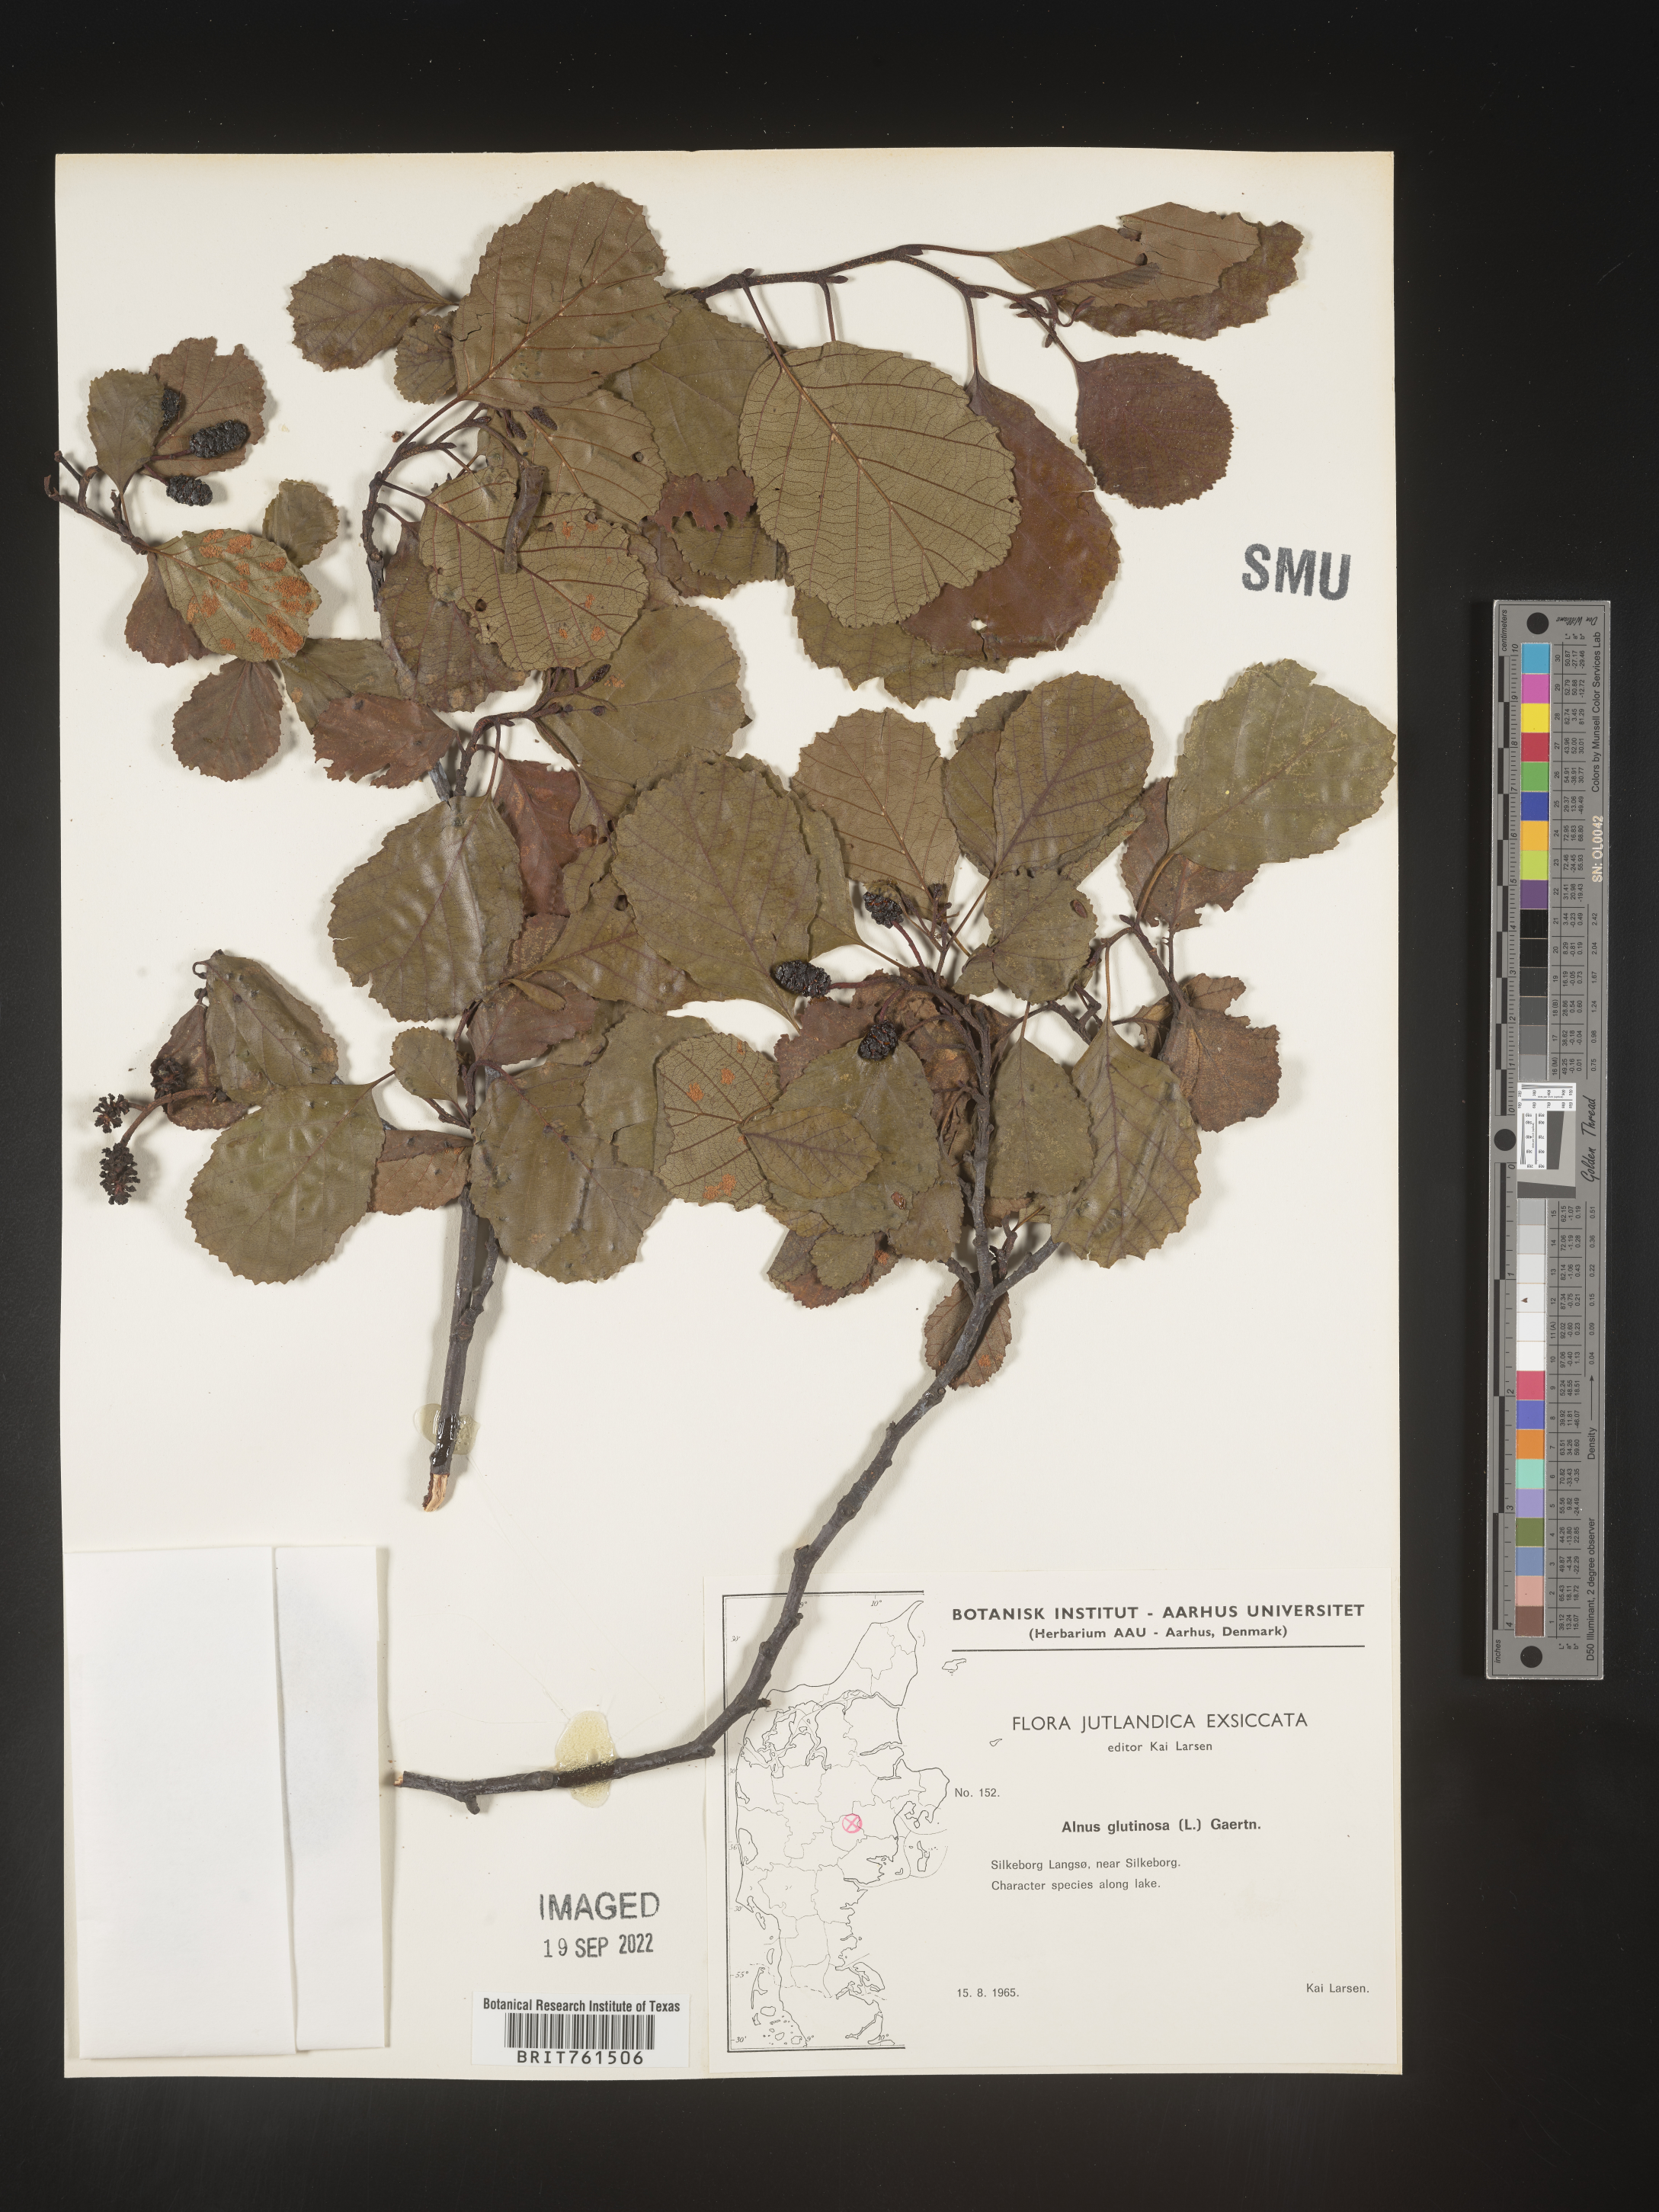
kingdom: Plantae
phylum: Tracheophyta
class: Magnoliopsida
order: Fagales
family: Betulaceae
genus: Alnus
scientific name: Alnus
